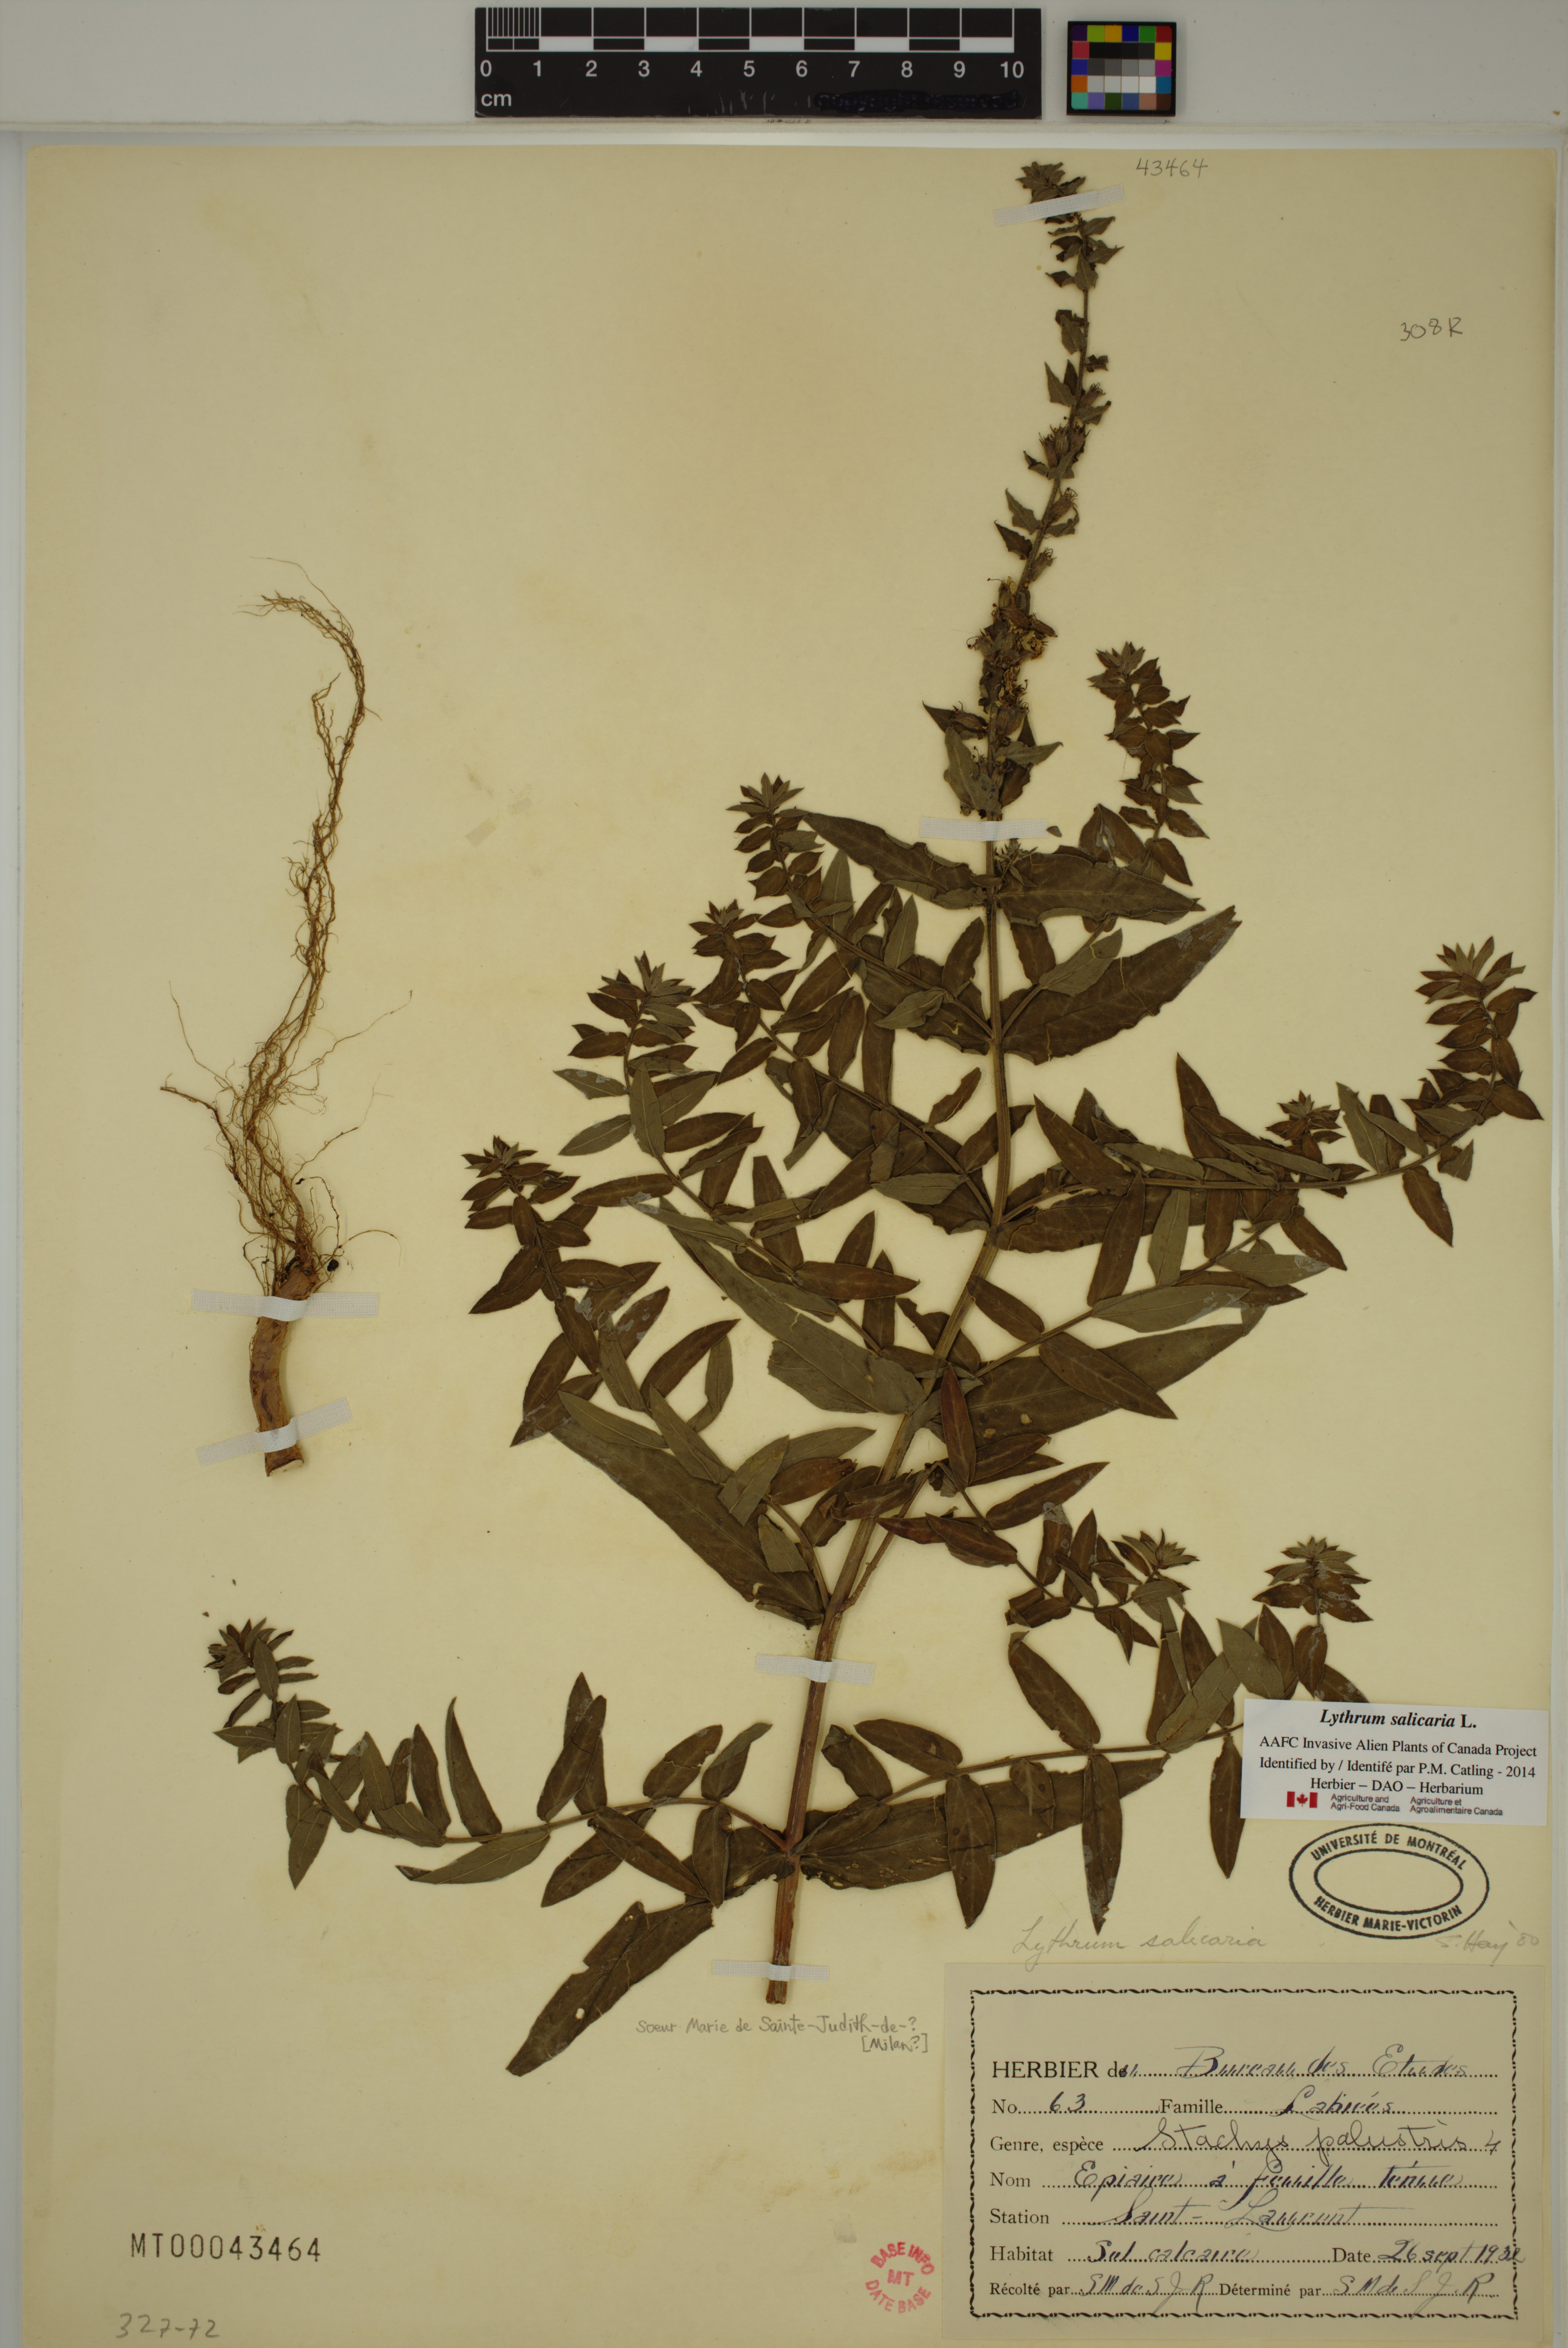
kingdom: Plantae
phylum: Tracheophyta
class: Magnoliopsida
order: Myrtales
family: Lythraceae
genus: Lythrum
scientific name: Lythrum salicaria
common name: Purple loosestrife
